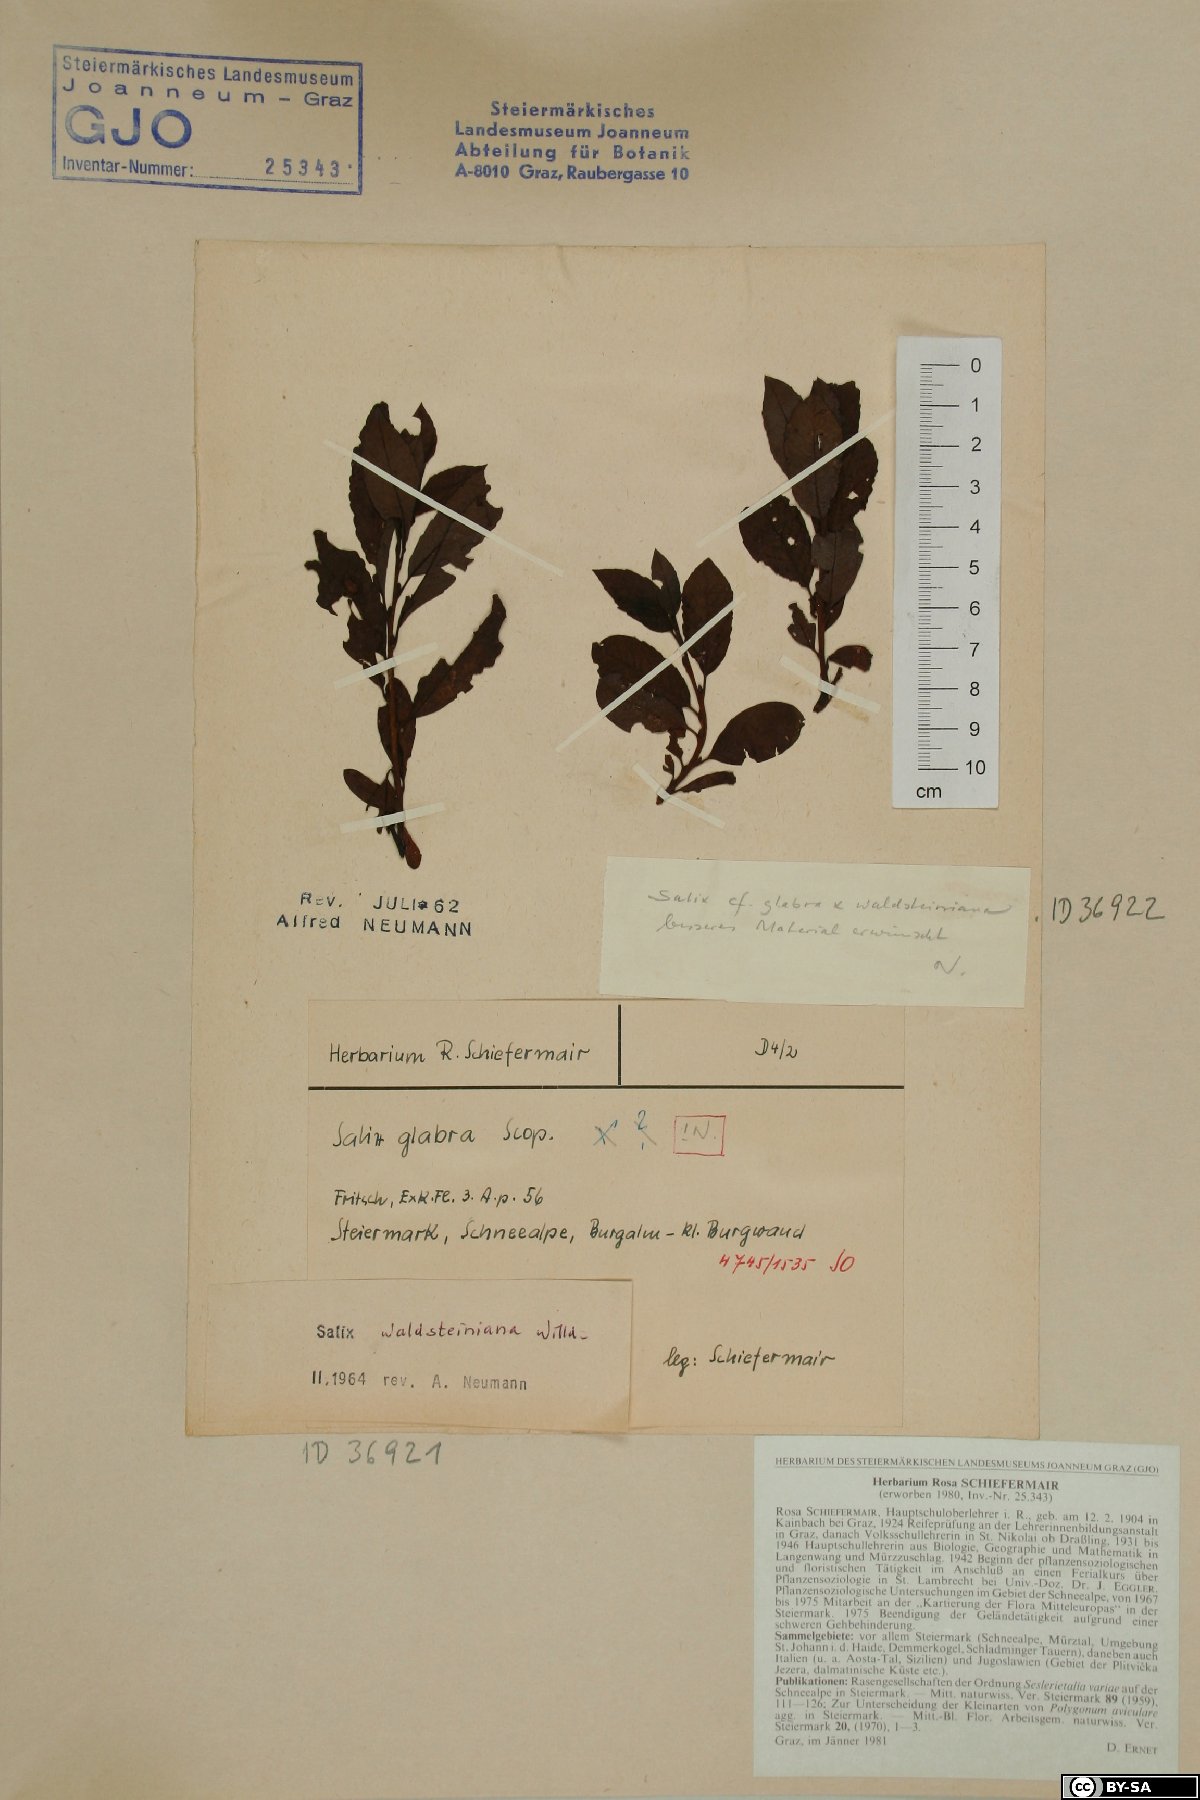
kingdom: Plantae
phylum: Tracheophyta
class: Magnoliopsida
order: Malpighiales
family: Salicaceae
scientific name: Salicaceae
